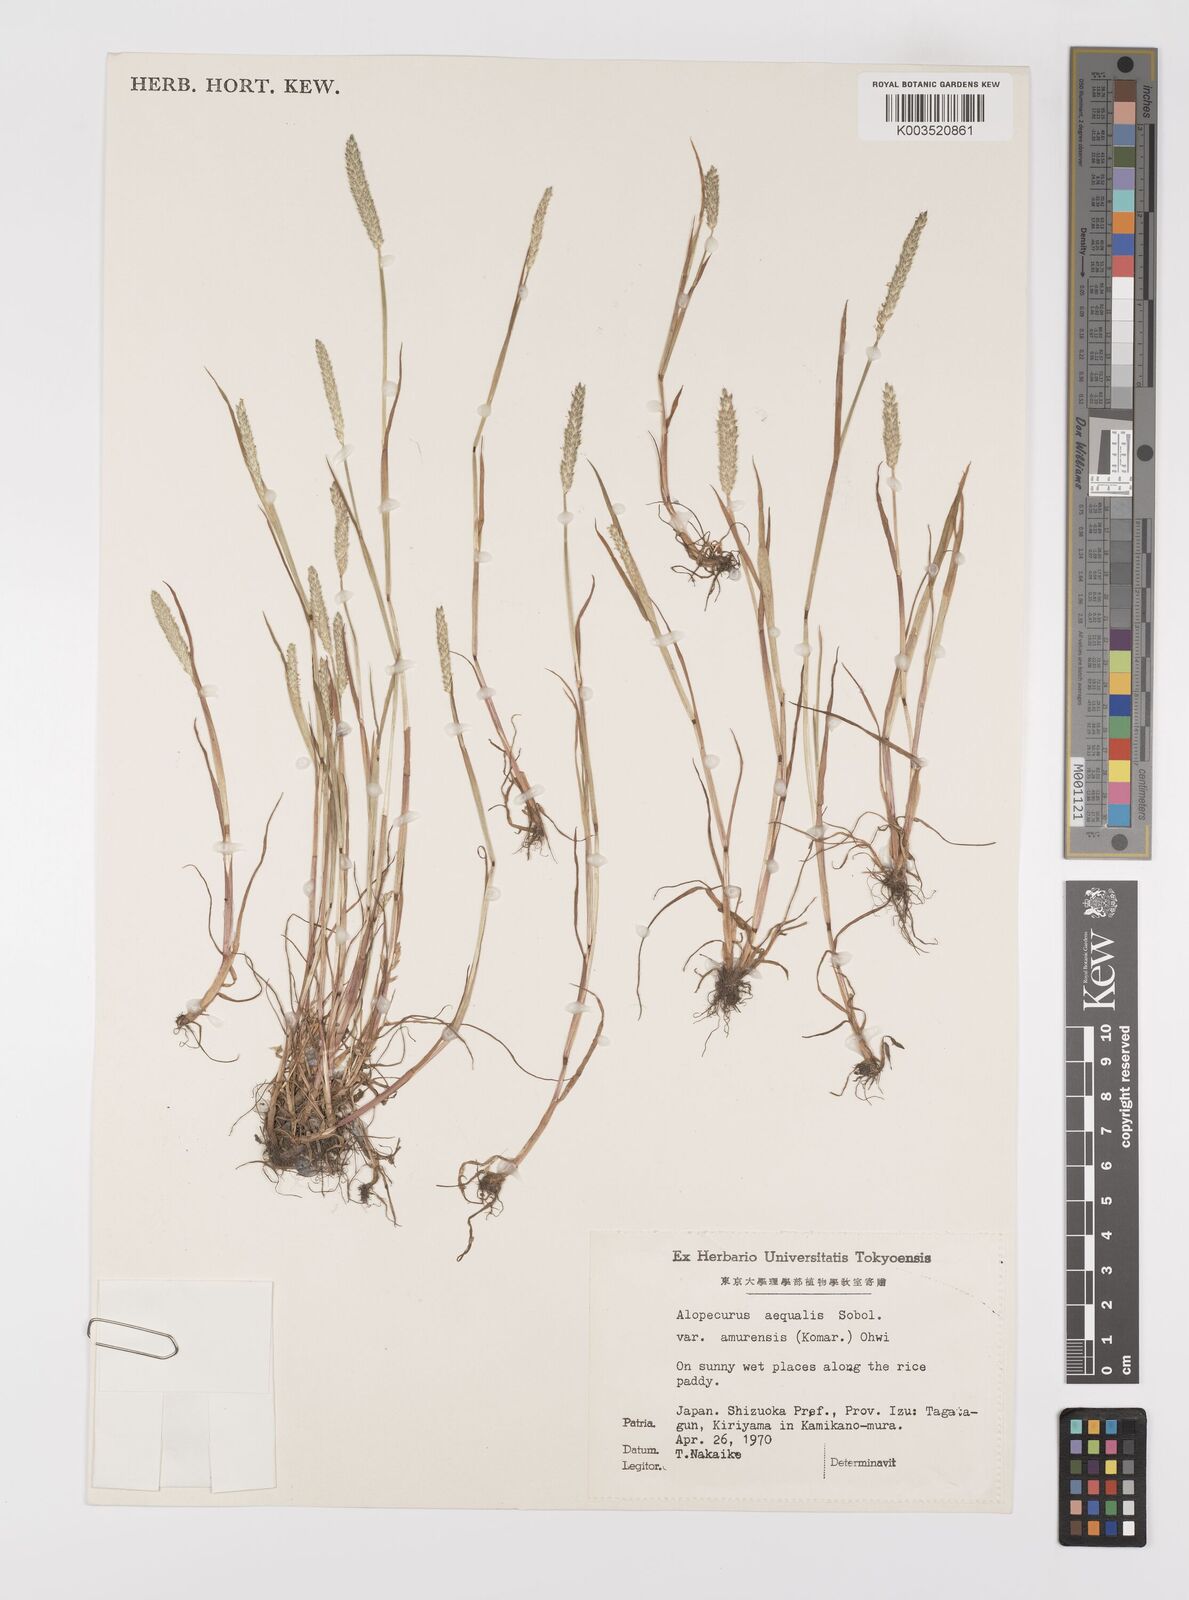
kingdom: Plantae
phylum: Tracheophyta
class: Liliopsida
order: Poales
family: Poaceae
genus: Alopecurus
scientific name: Alopecurus aequalis
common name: Orange foxtail
